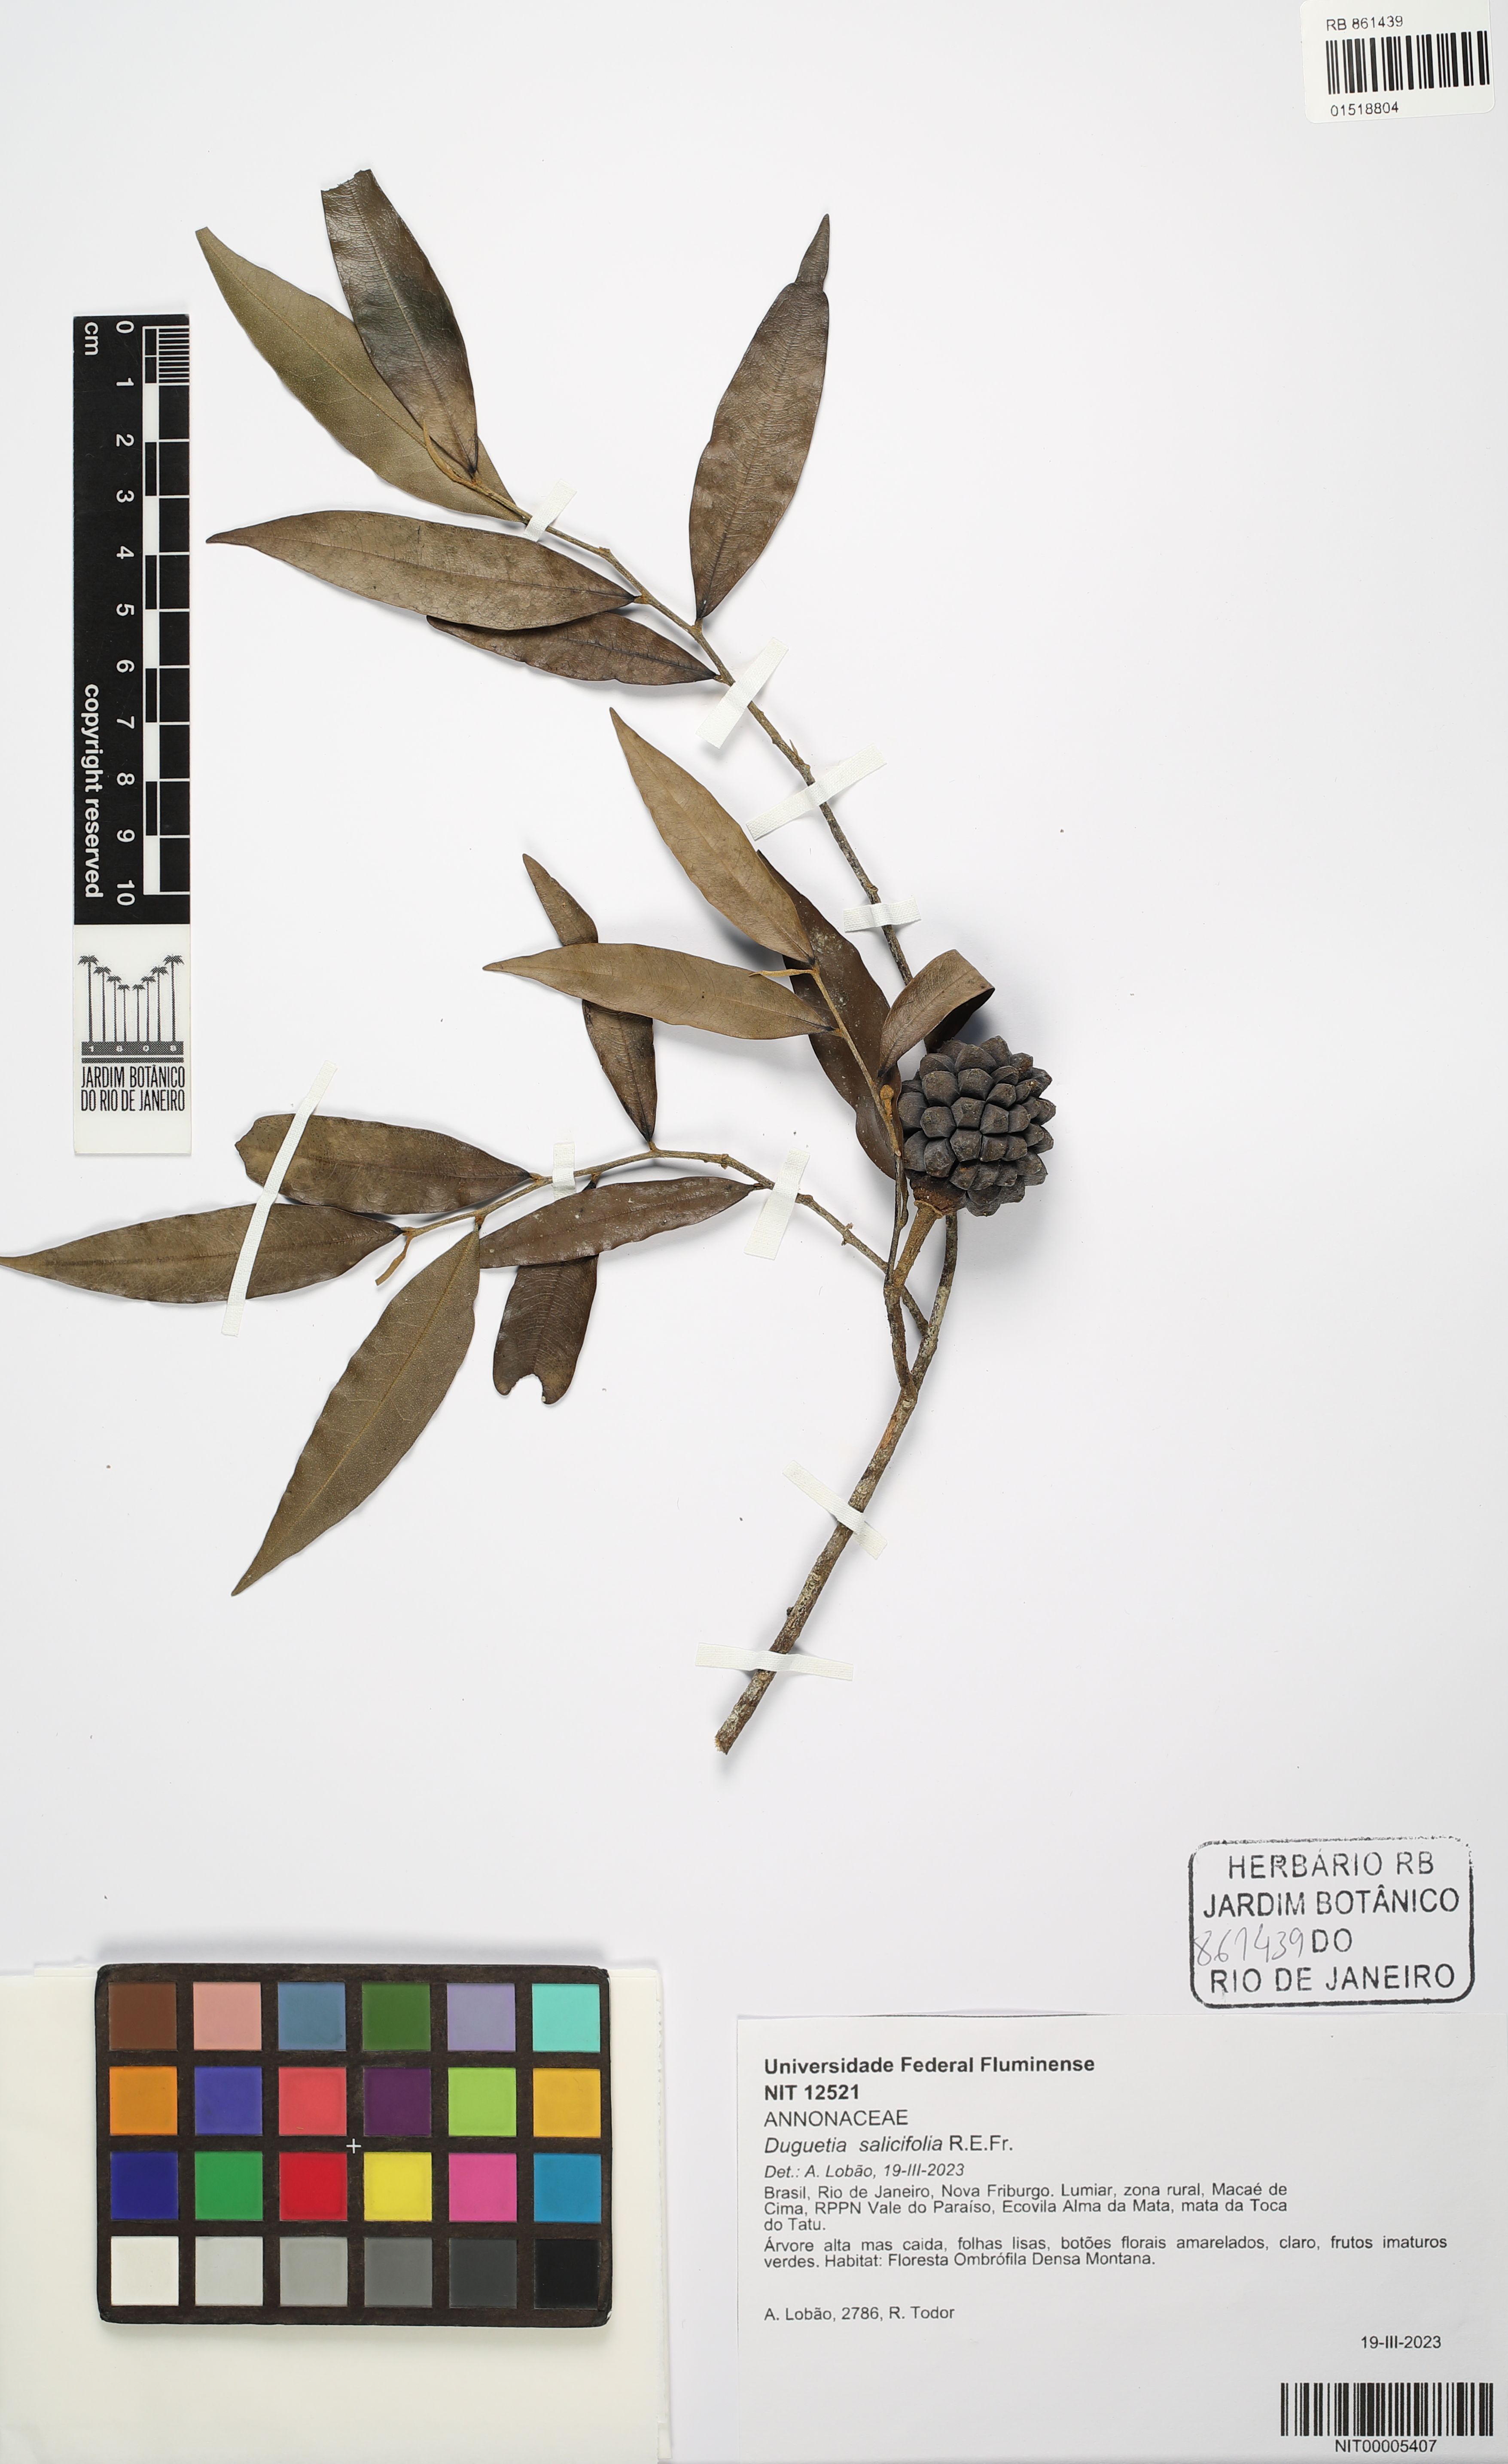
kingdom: Plantae
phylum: Tracheophyta
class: Magnoliopsida
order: Magnoliales
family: Annonaceae
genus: Duguetia
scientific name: Duguetia salicifolia
